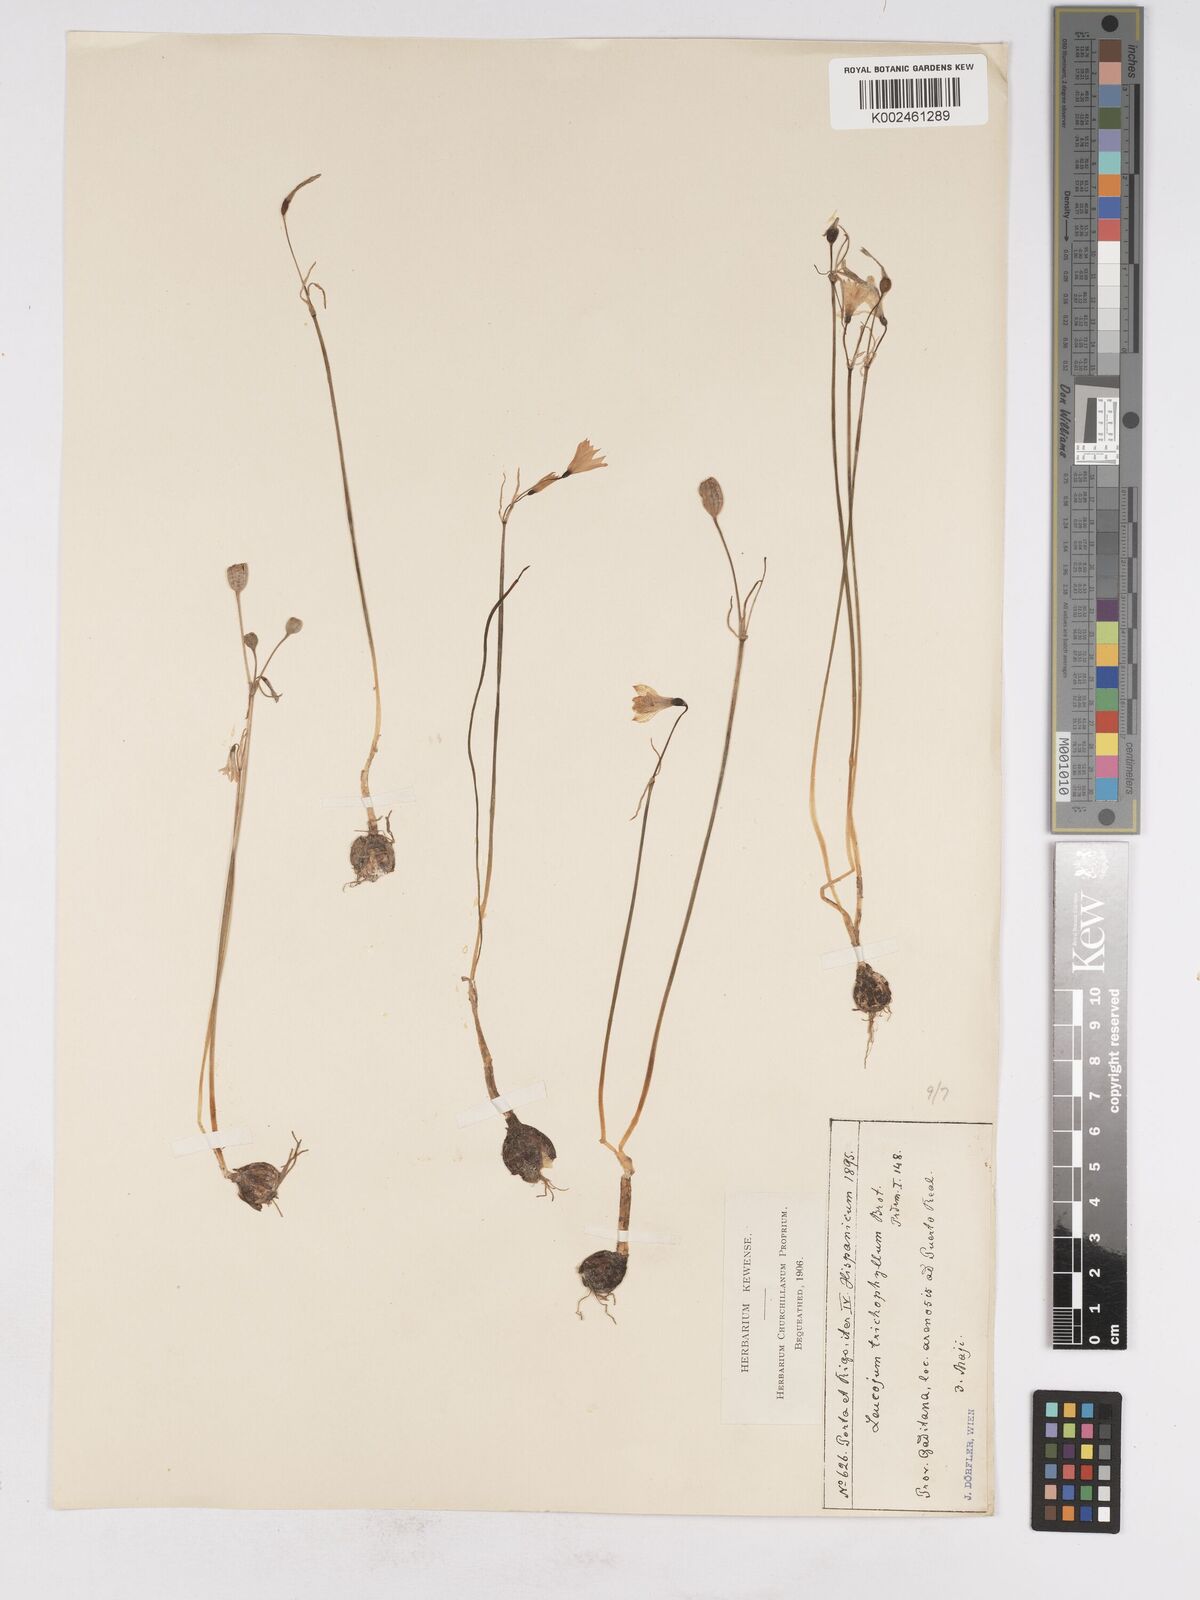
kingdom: Plantae
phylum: Tracheophyta
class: Liliopsida
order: Asparagales
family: Amaryllidaceae
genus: Acis
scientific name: Acis trichophylla
